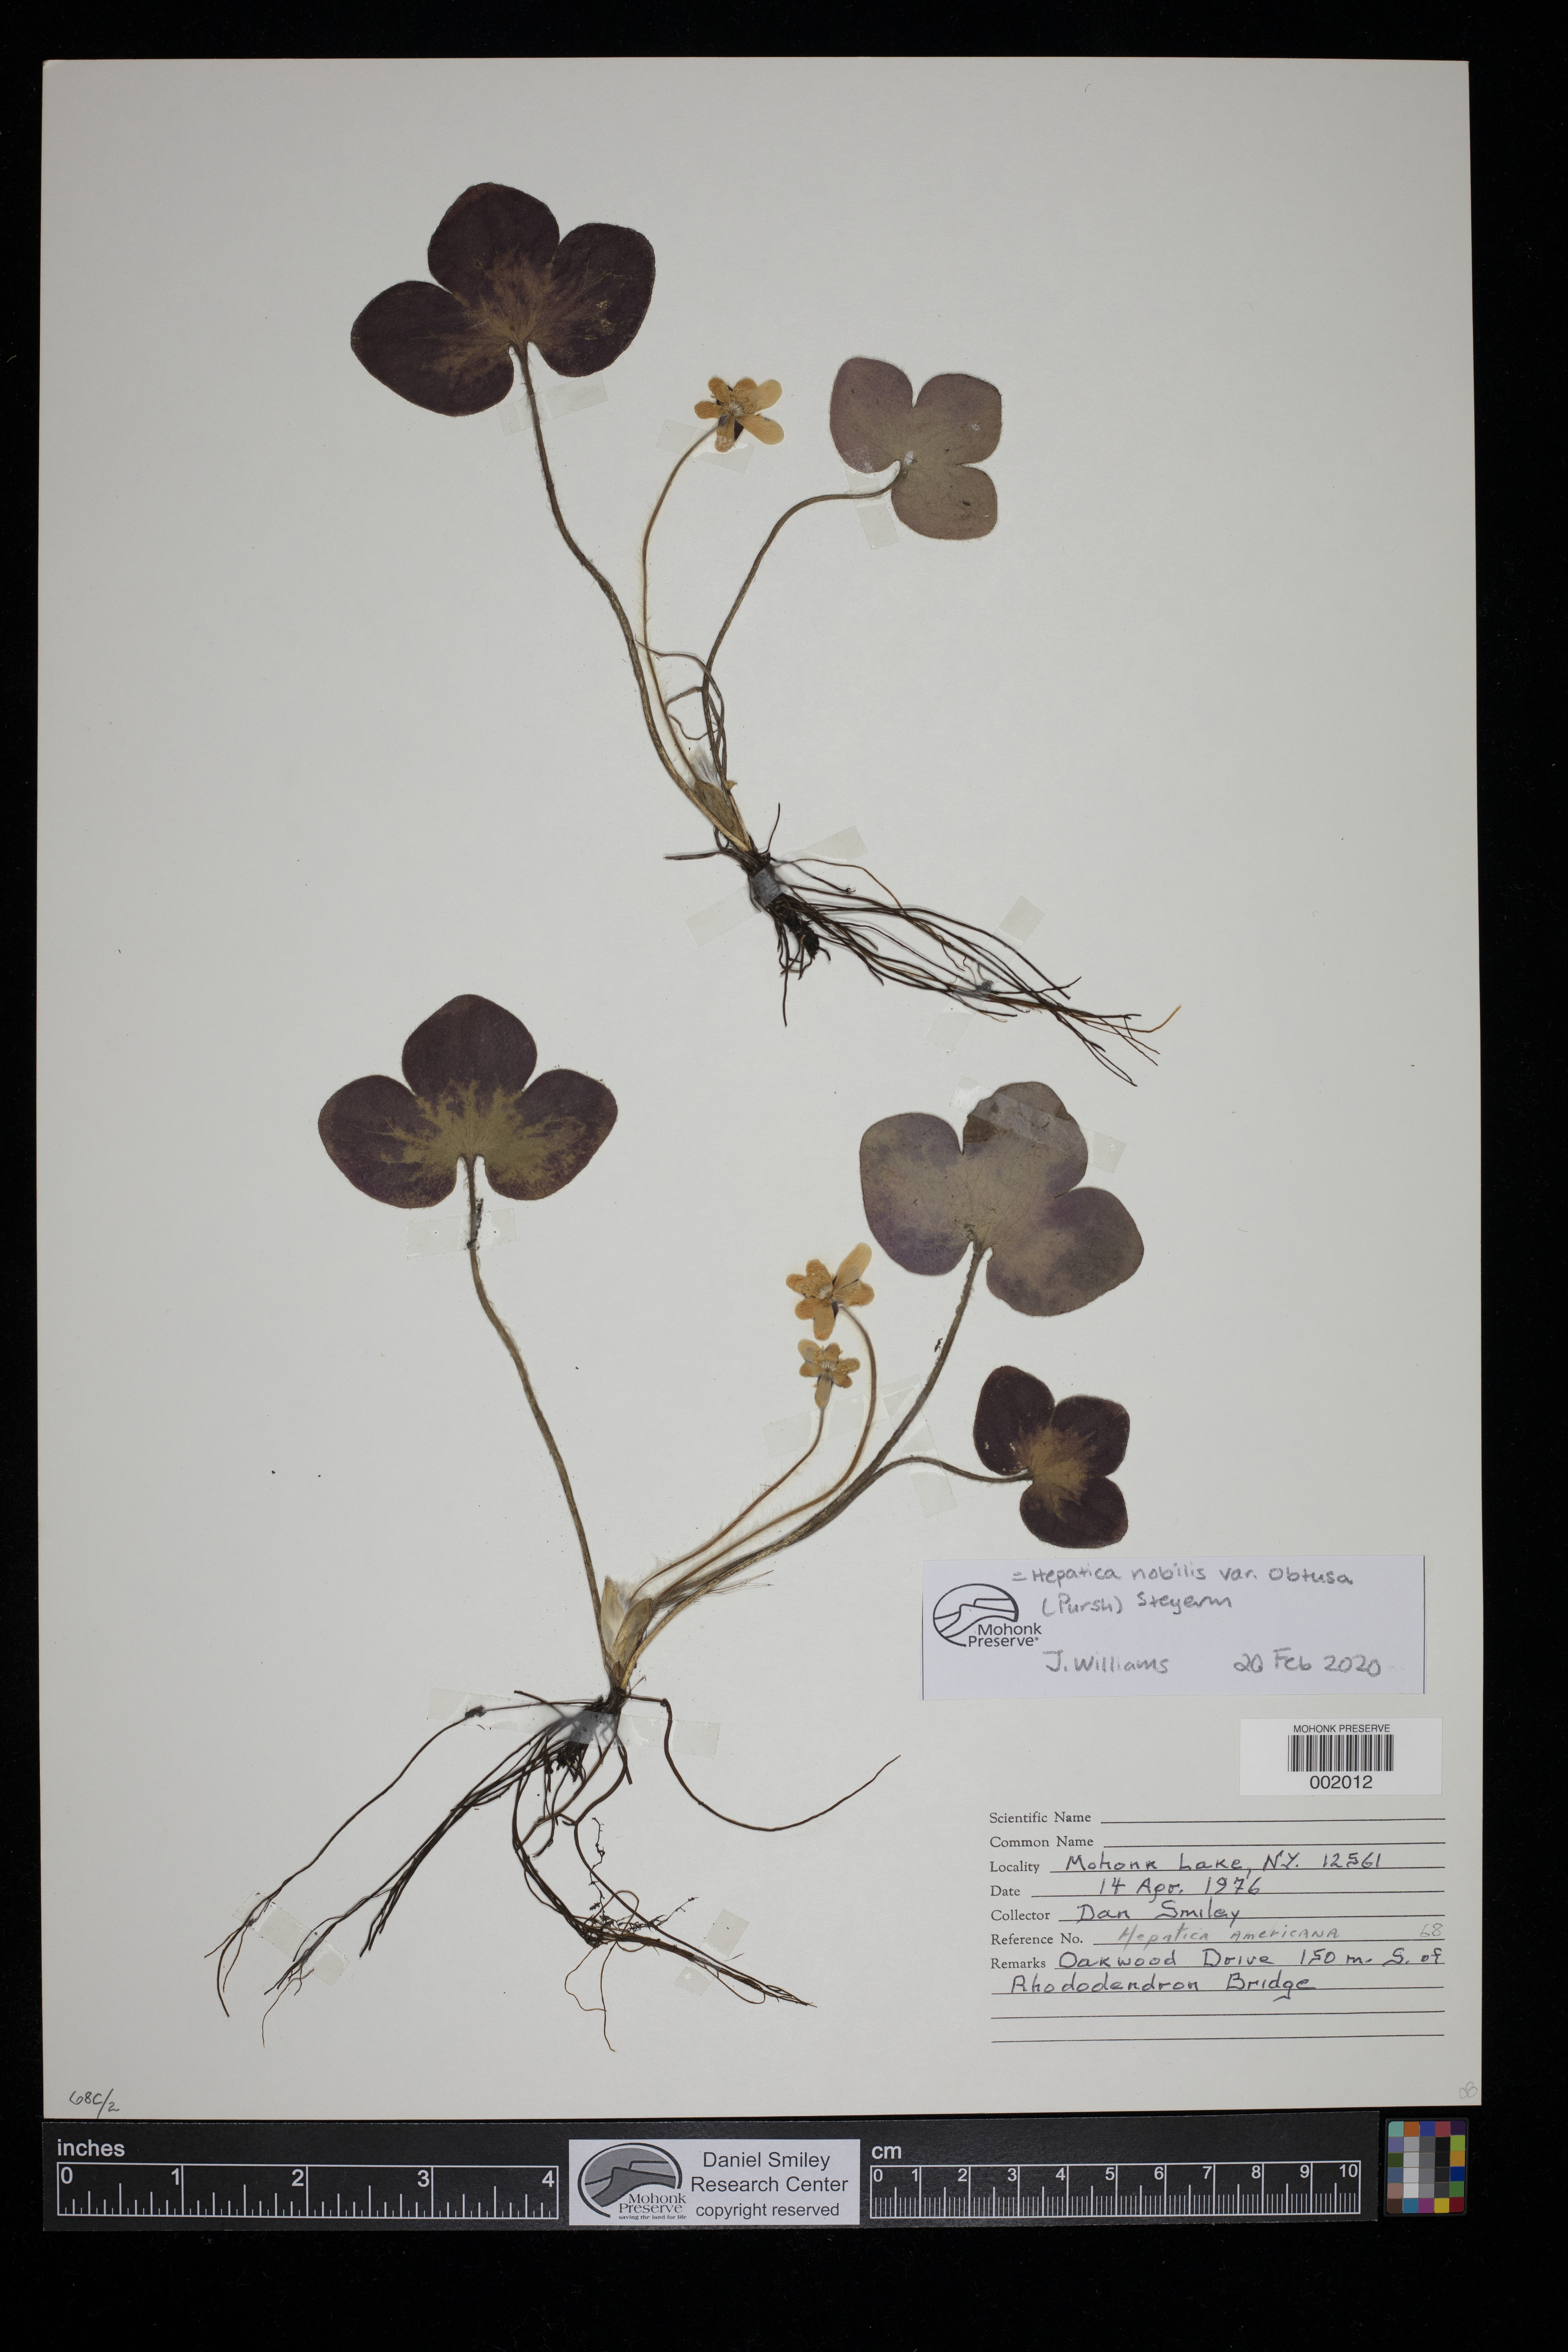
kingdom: Plantae
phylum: Tracheophyta
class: Magnoliopsida
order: Ranunculales
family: Ranunculaceae
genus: Hepatica
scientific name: Hepatica nobilis
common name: Liverleaf
